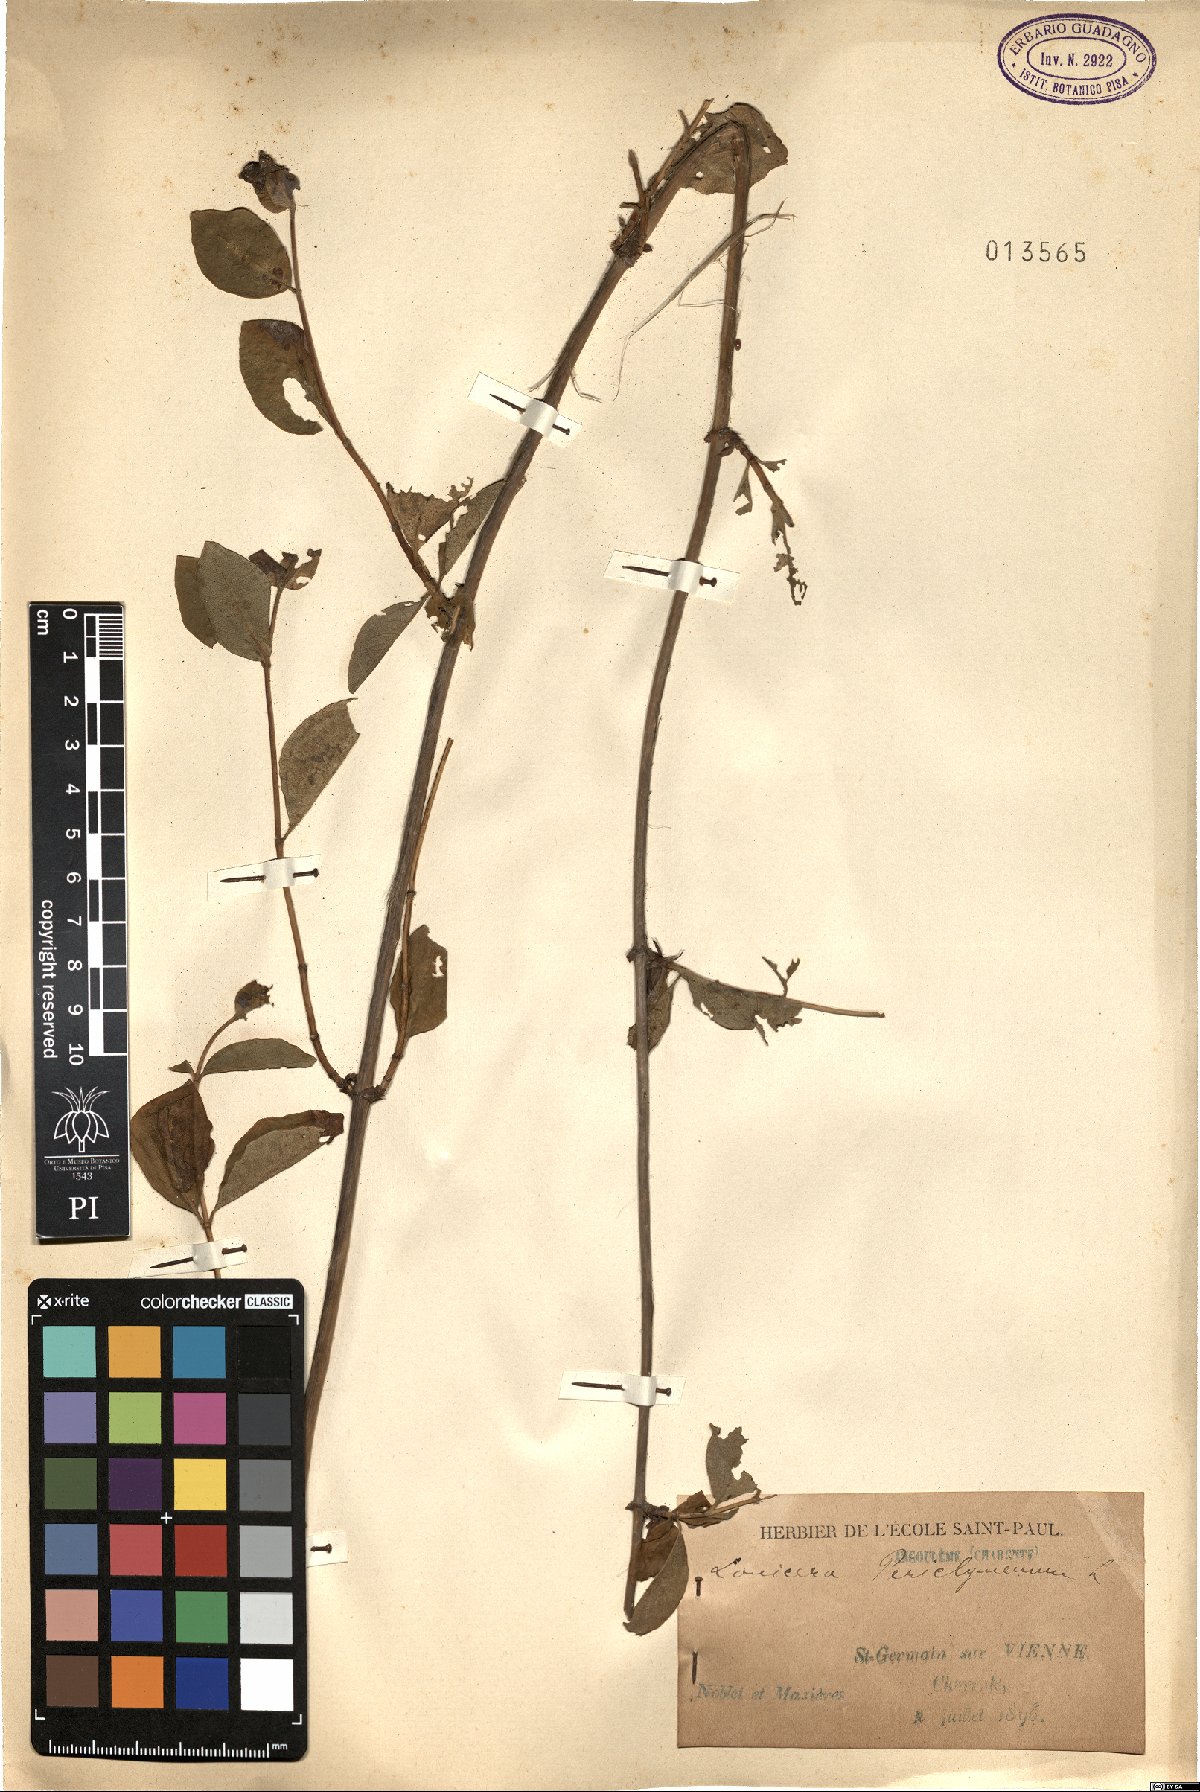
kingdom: Plantae
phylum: Tracheophyta
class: Magnoliopsida
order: Dipsacales
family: Caprifoliaceae
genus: Lonicera
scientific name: Lonicera periclymenum
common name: European honeysuckle
